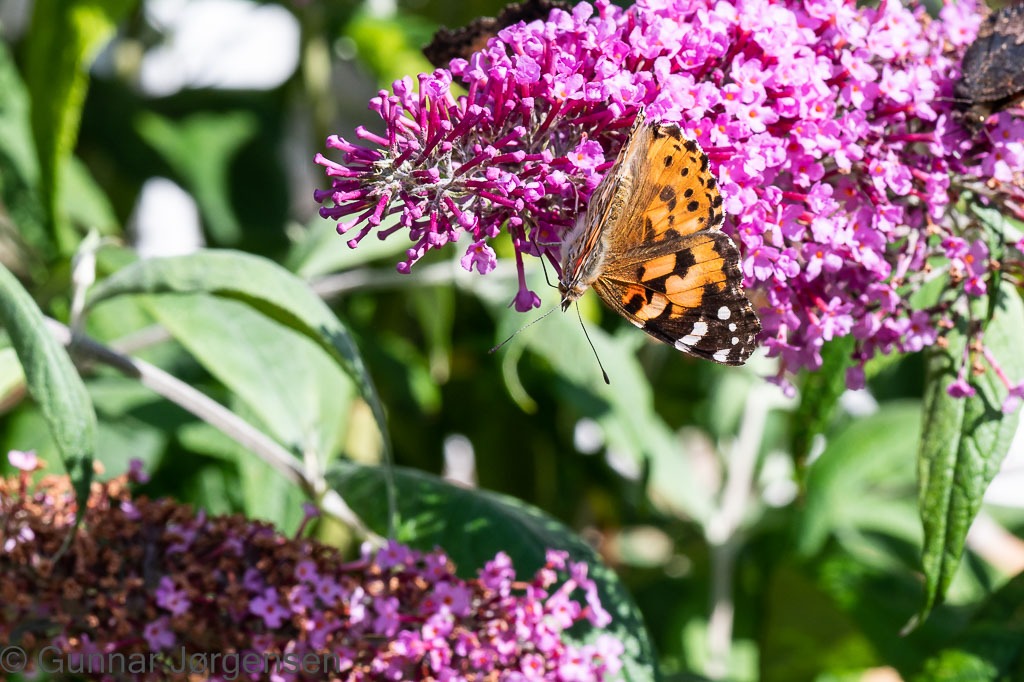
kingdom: Animalia
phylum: Arthropoda
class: Insecta
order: Lepidoptera
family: Nymphalidae
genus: Vanessa
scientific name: Vanessa cardui
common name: Tidselsommerfugl
